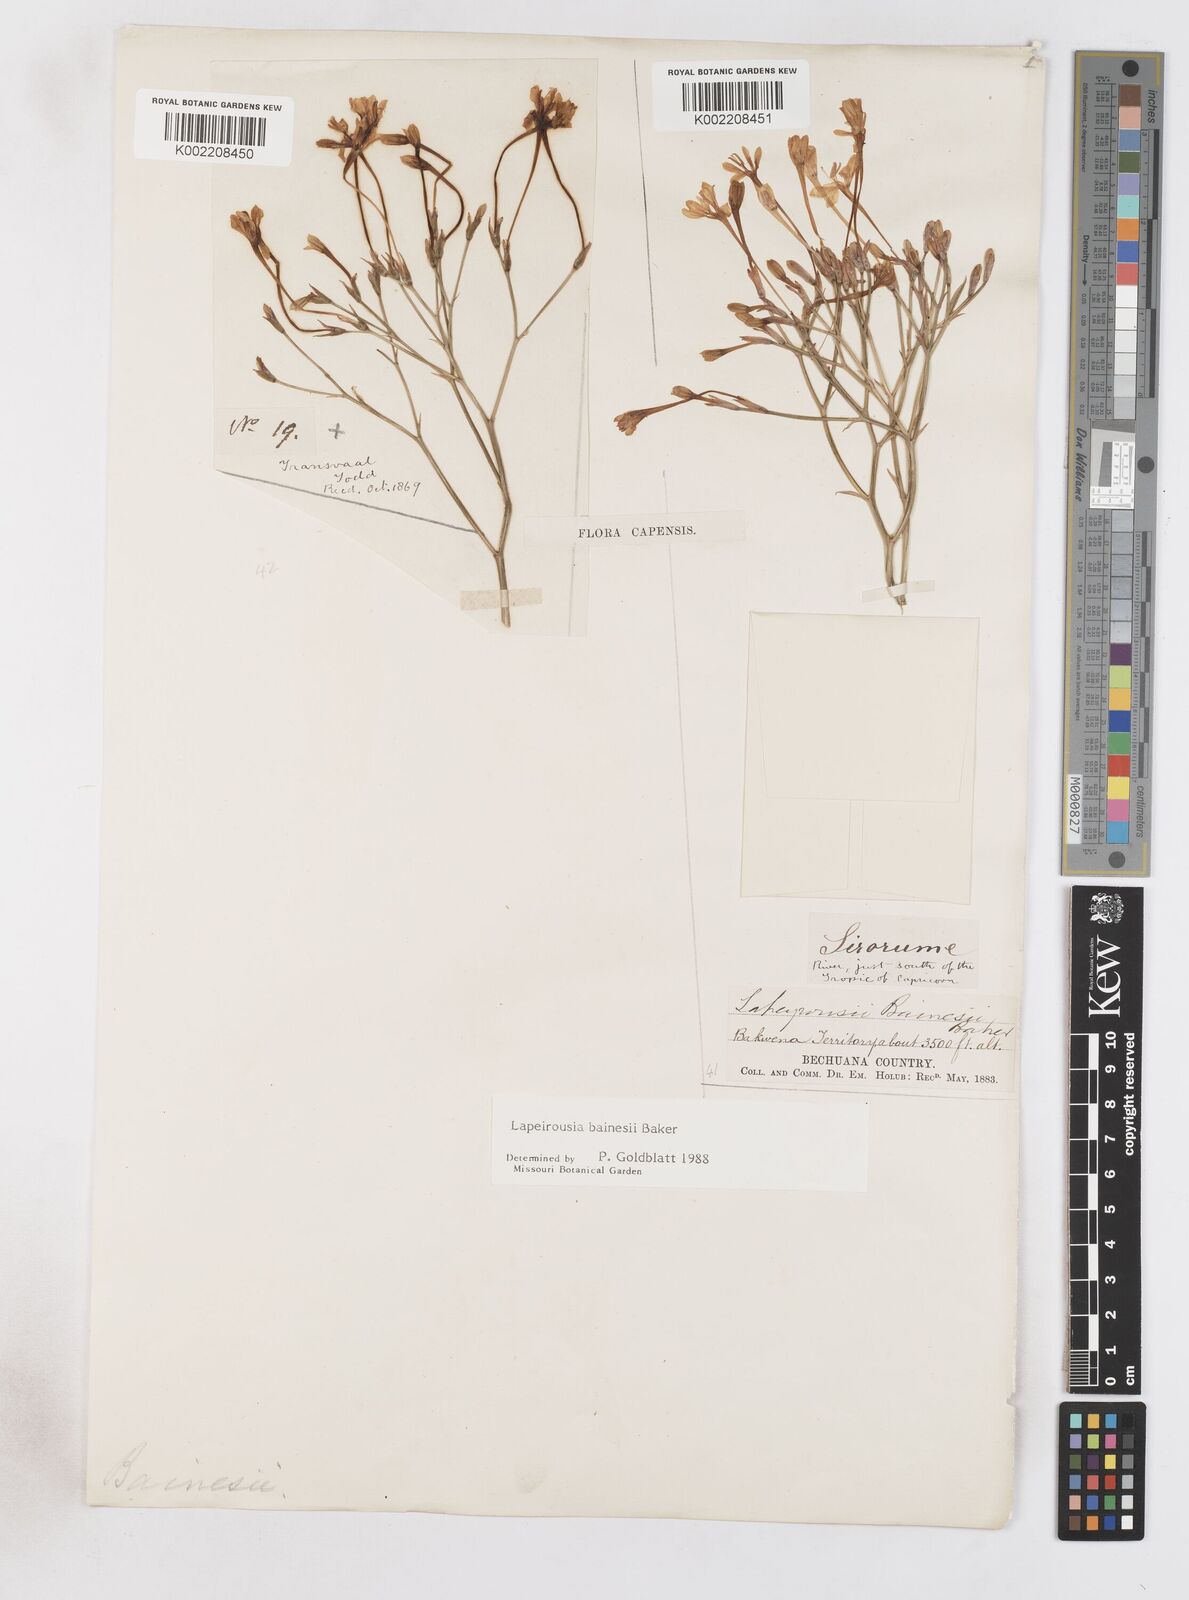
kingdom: Plantae
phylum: Tracheophyta
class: Liliopsida
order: Asparagales
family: Iridaceae
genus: Afrosolen
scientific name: Afrosolen erythranthus
